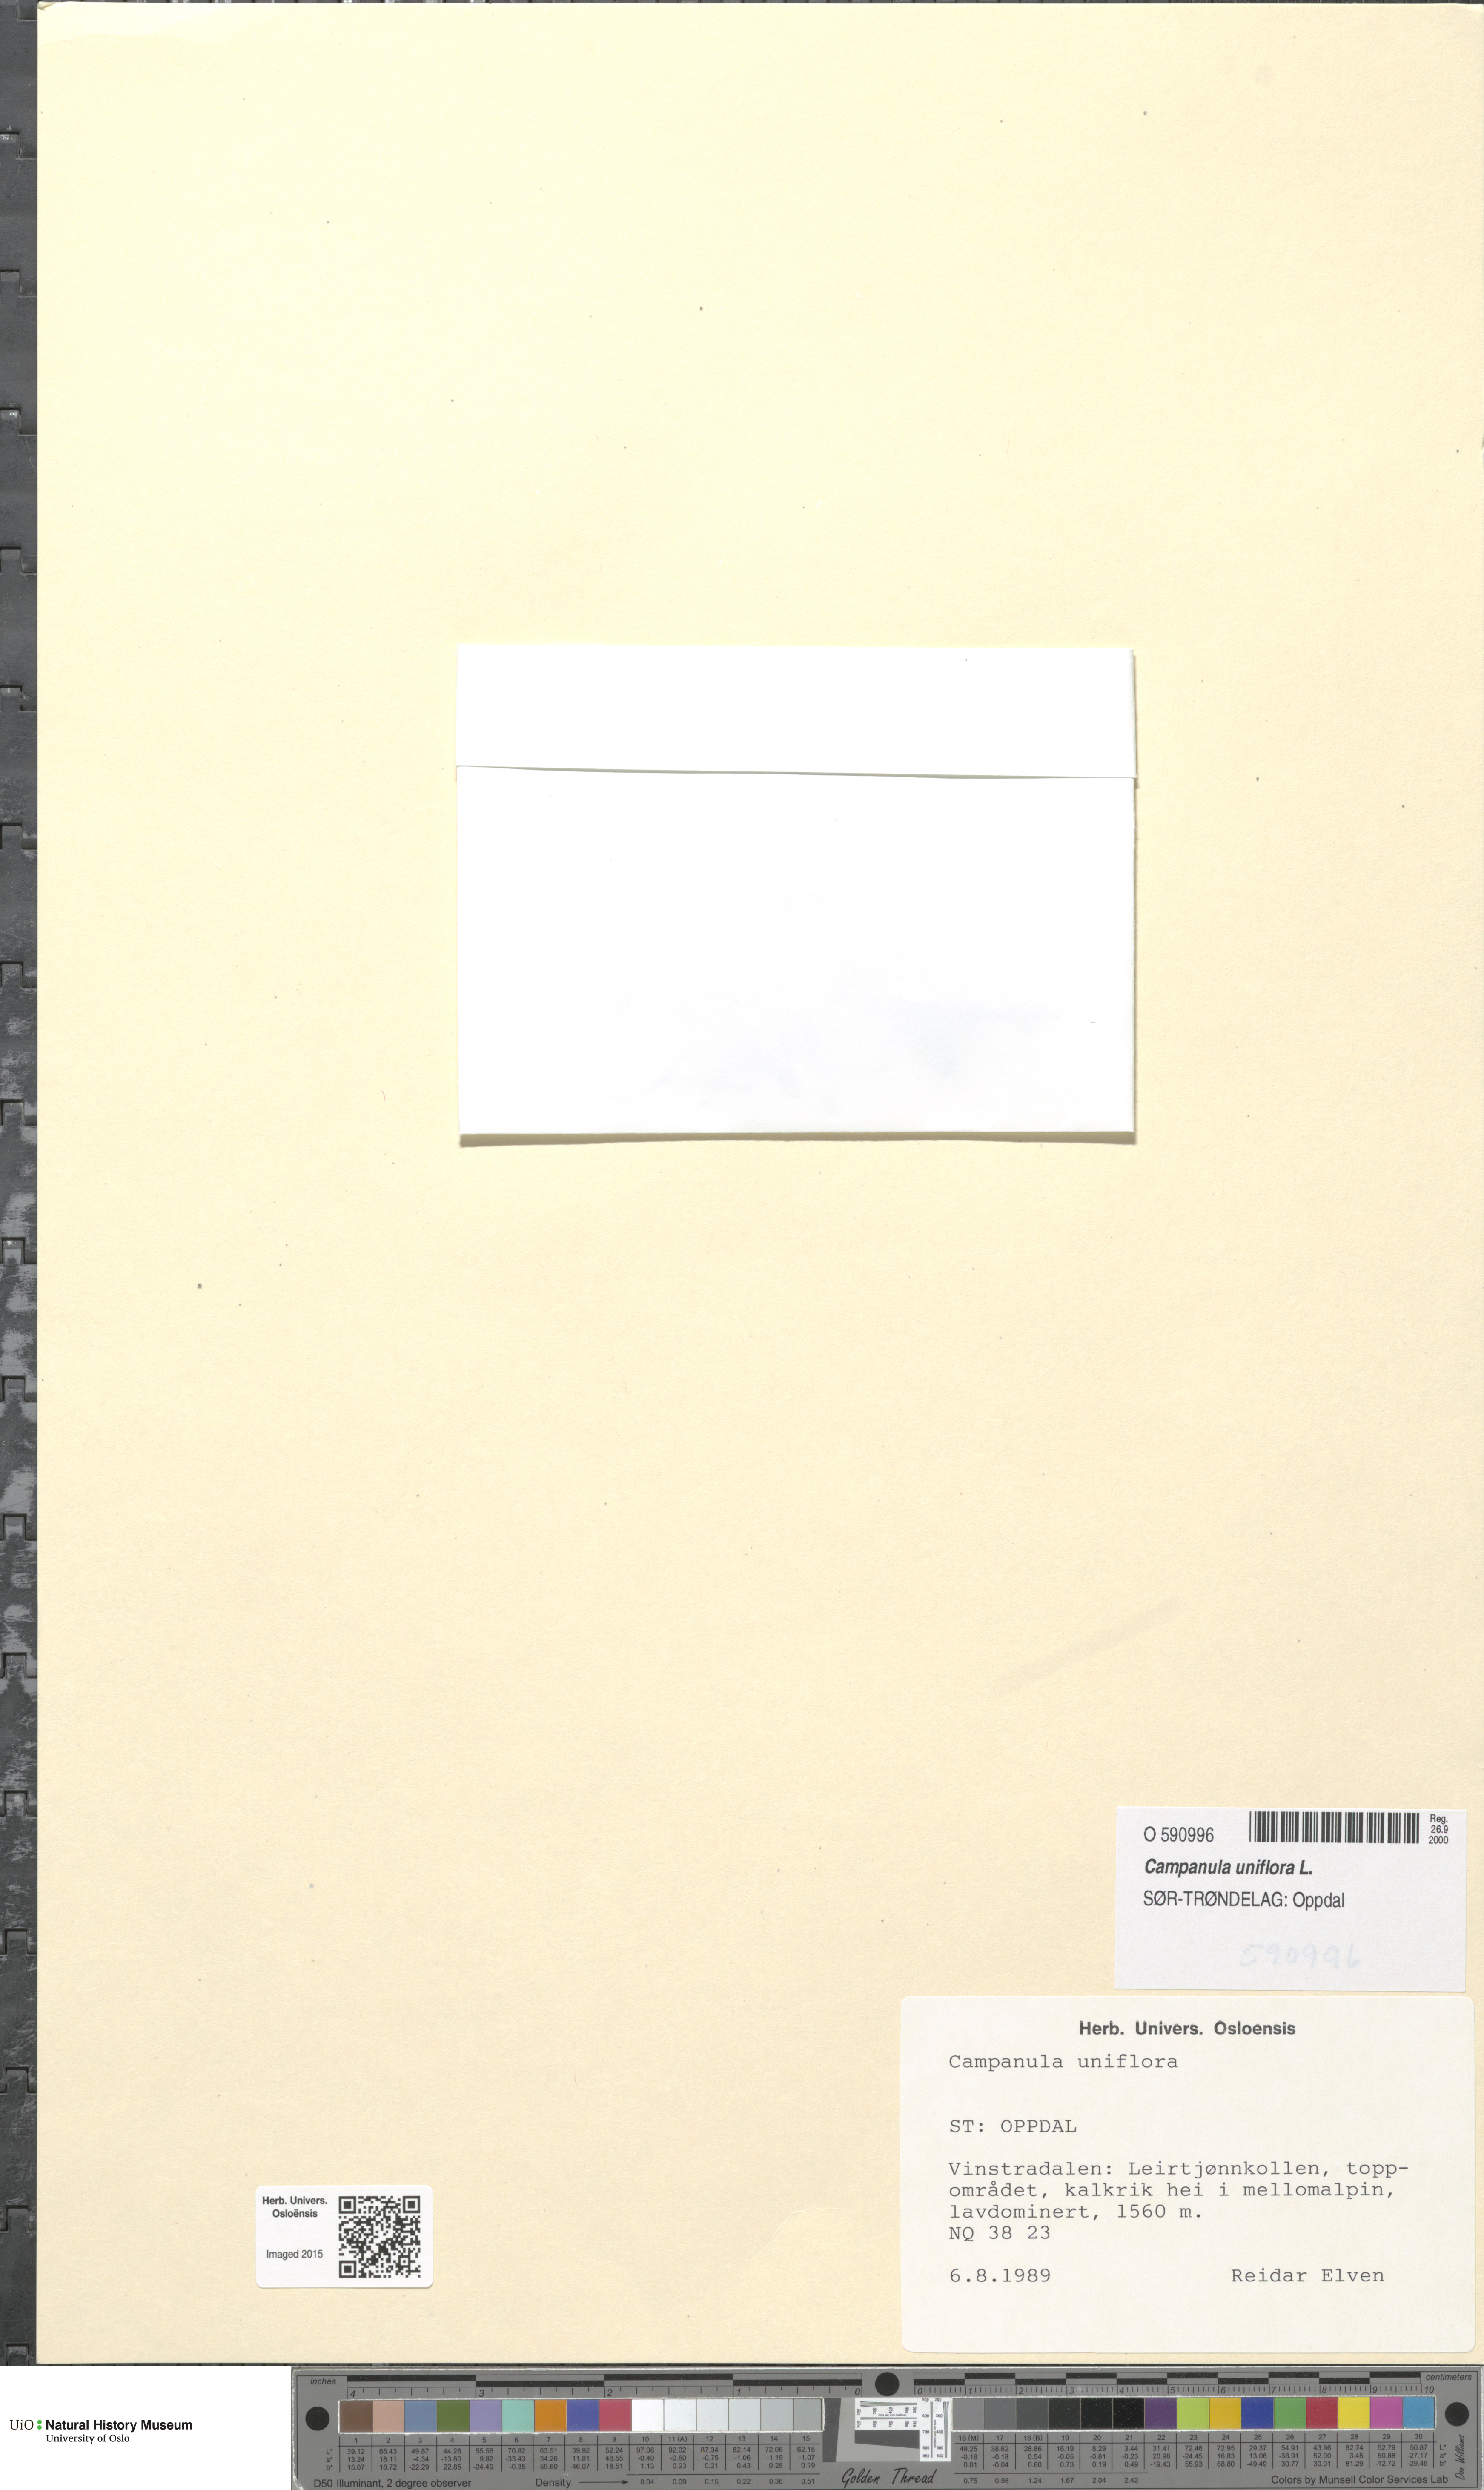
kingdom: Plantae
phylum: Tracheophyta
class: Magnoliopsida
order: Asterales
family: Campanulaceae
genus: Melanocalyx
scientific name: Melanocalyx uniflora
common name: Alpine harebell
